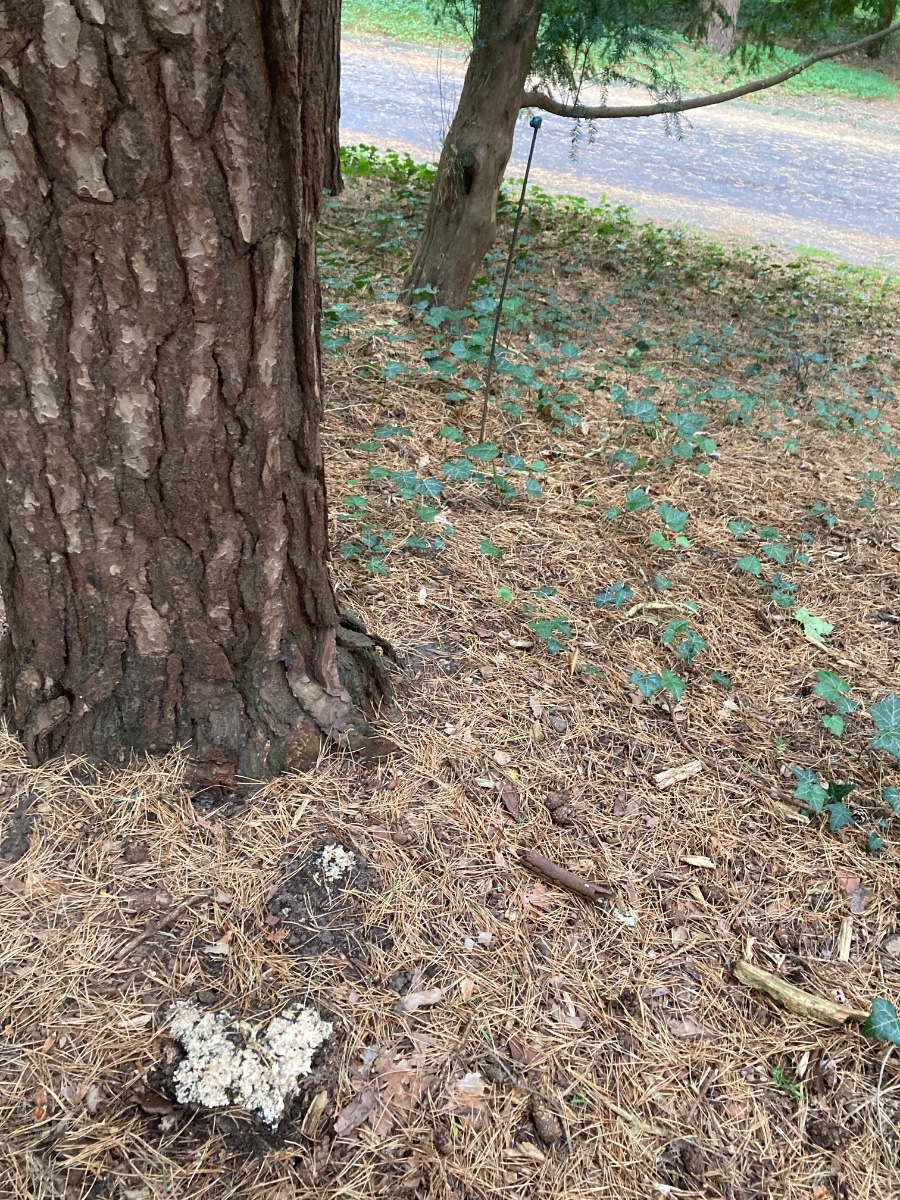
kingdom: Fungi
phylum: Basidiomycota
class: Agaricomycetes
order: Polyporales
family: Sparassidaceae
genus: Sparassis
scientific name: Sparassis crispa
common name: kruset blomkålssvamp
